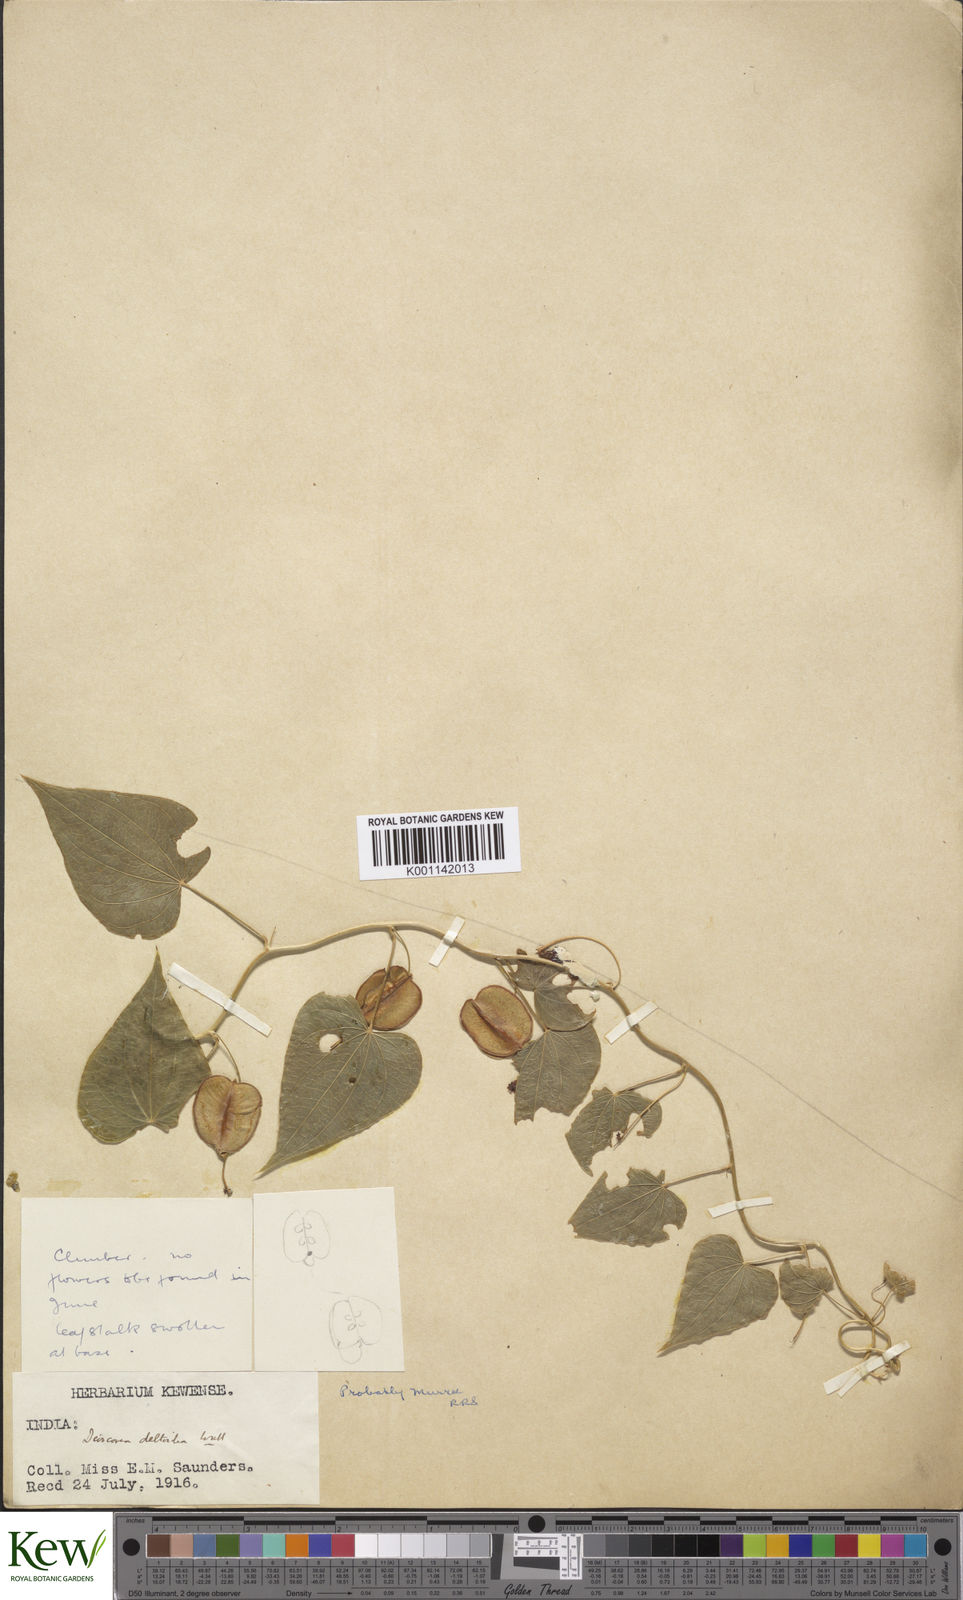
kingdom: Plantae
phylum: Tracheophyta
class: Liliopsida
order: Dioscoreales
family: Dioscoreaceae
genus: Dioscorea
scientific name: Dioscorea deltoidea
